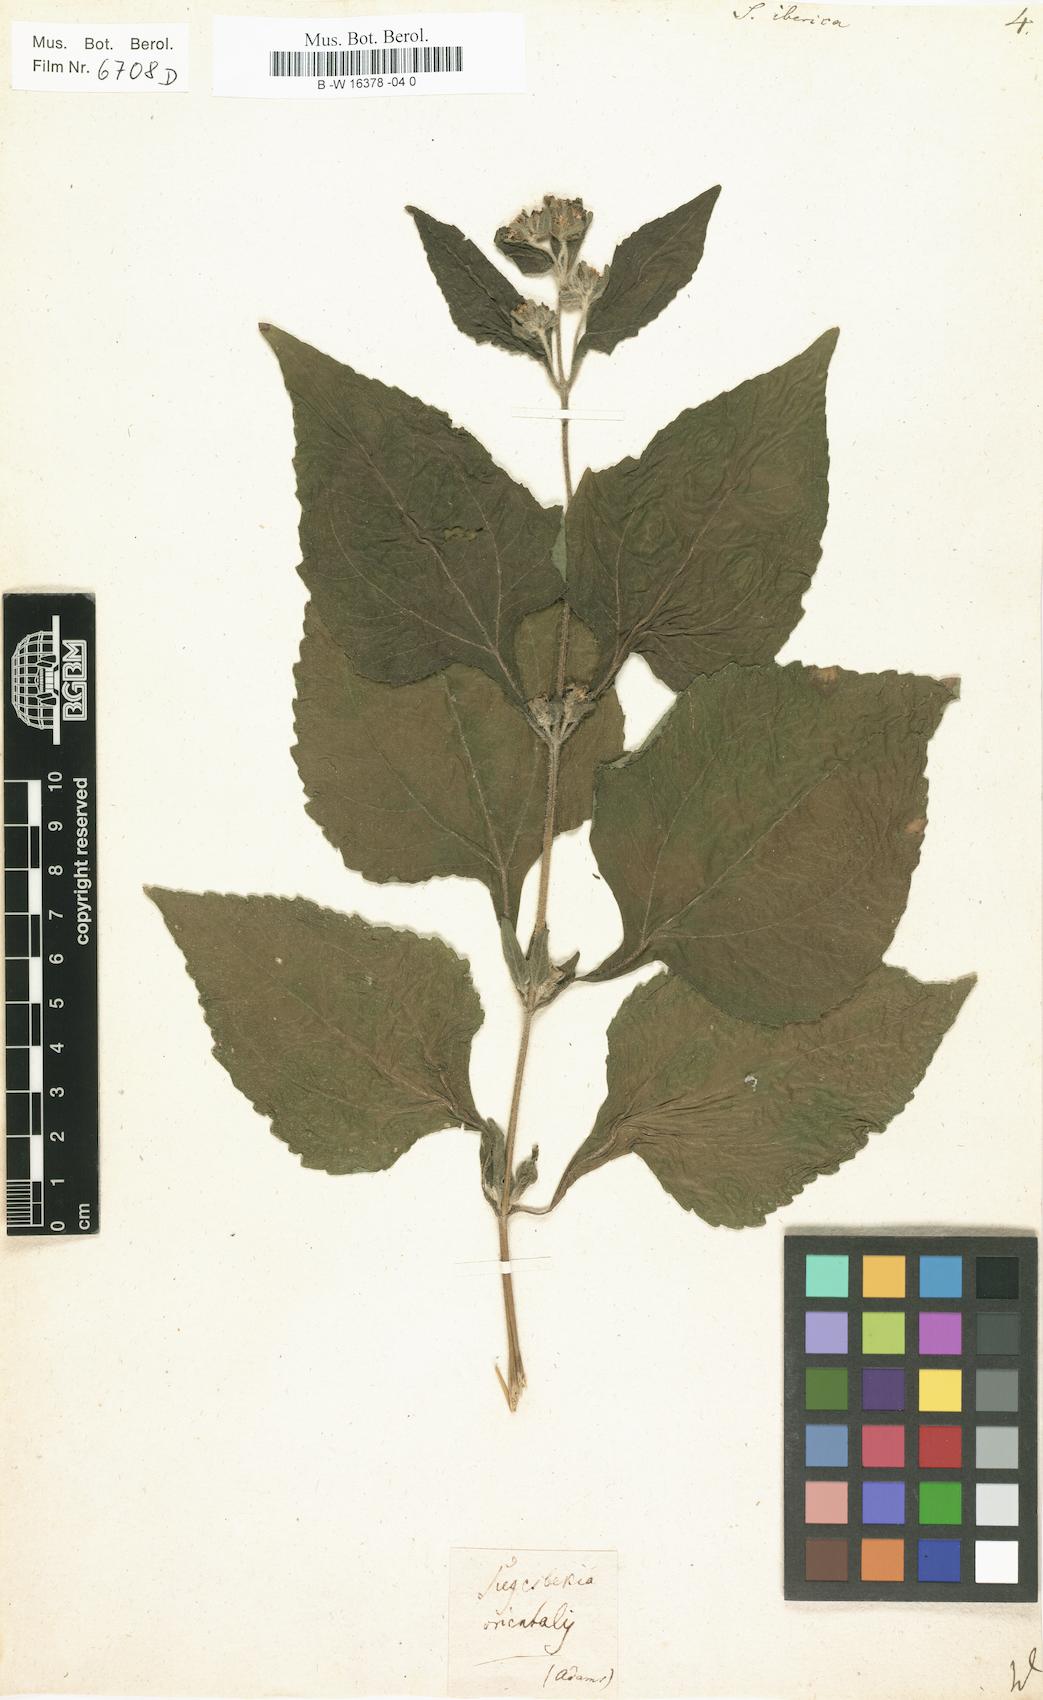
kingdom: Plantae
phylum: Tracheophyta
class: Magnoliopsida
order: Asterales
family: Asteraceae
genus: Siegesbeckia
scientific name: Siegesbeckia
